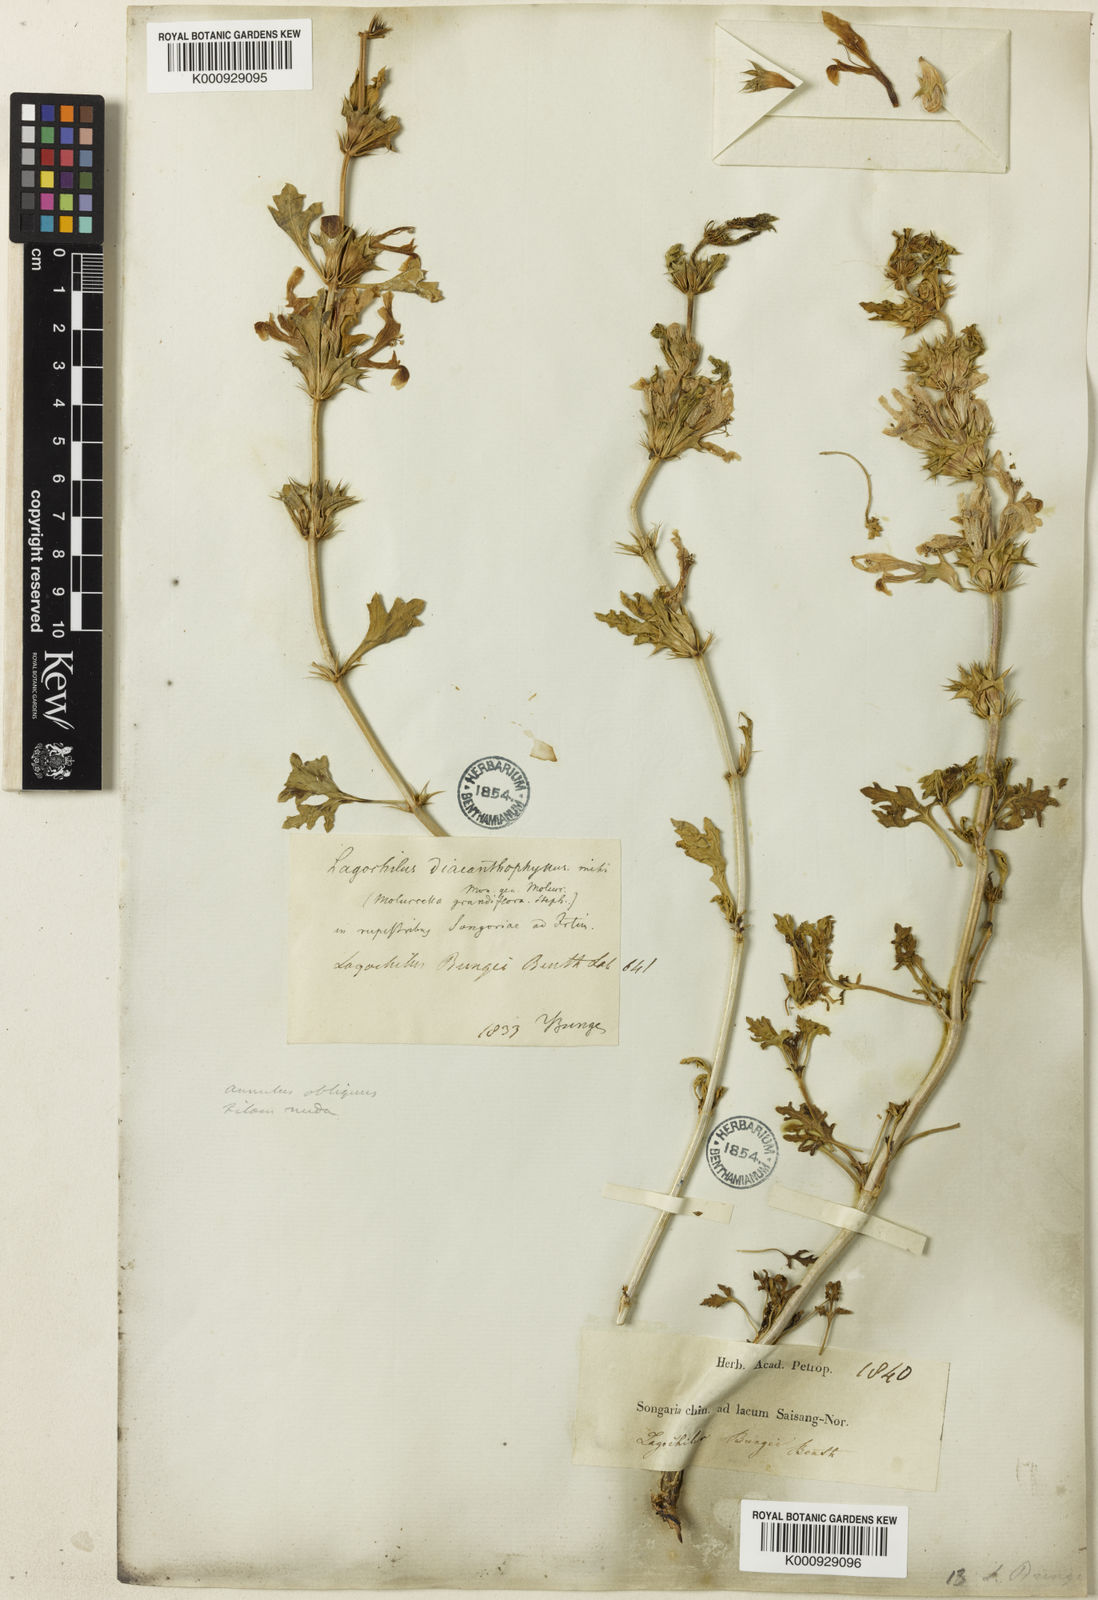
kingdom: Plantae
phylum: Tracheophyta
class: Magnoliopsida
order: Lamiales
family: Lamiaceae
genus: Lagochilus
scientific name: Lagochilus bungei
